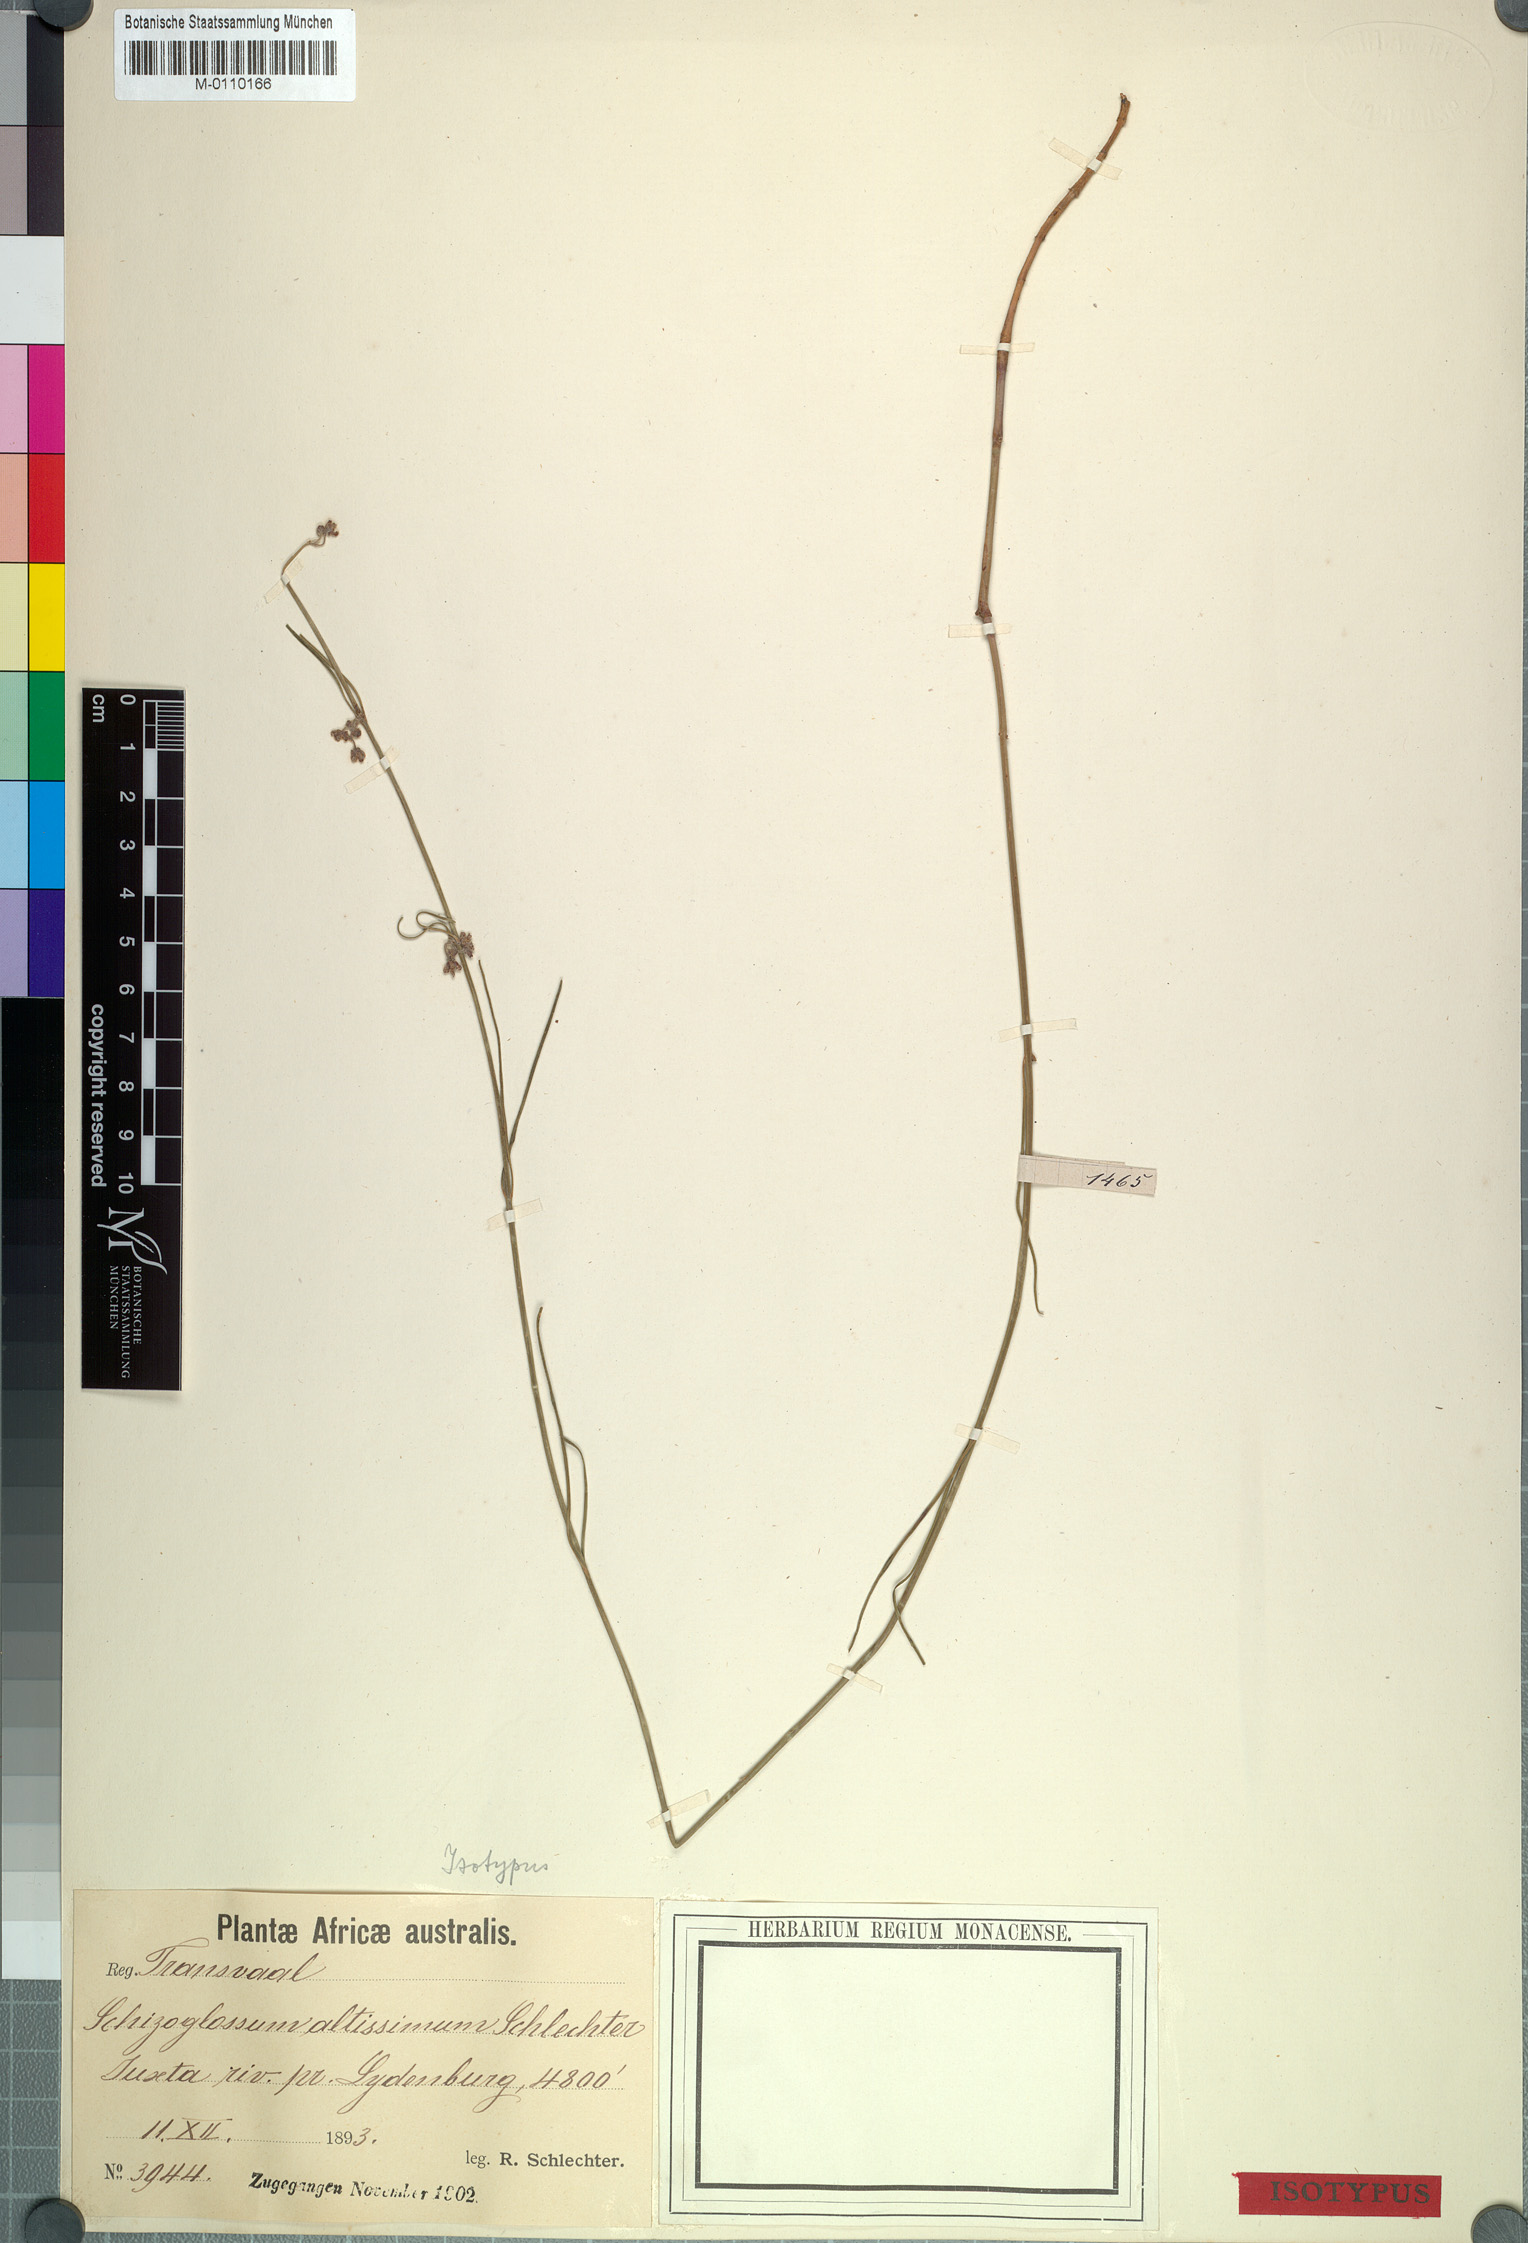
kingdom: Plantae
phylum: Tracheophyta
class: Magnoliopsida
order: Gentianales
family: Apocynaceae
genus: Aspidoglossum
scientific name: Aspidoglossum interruptum
